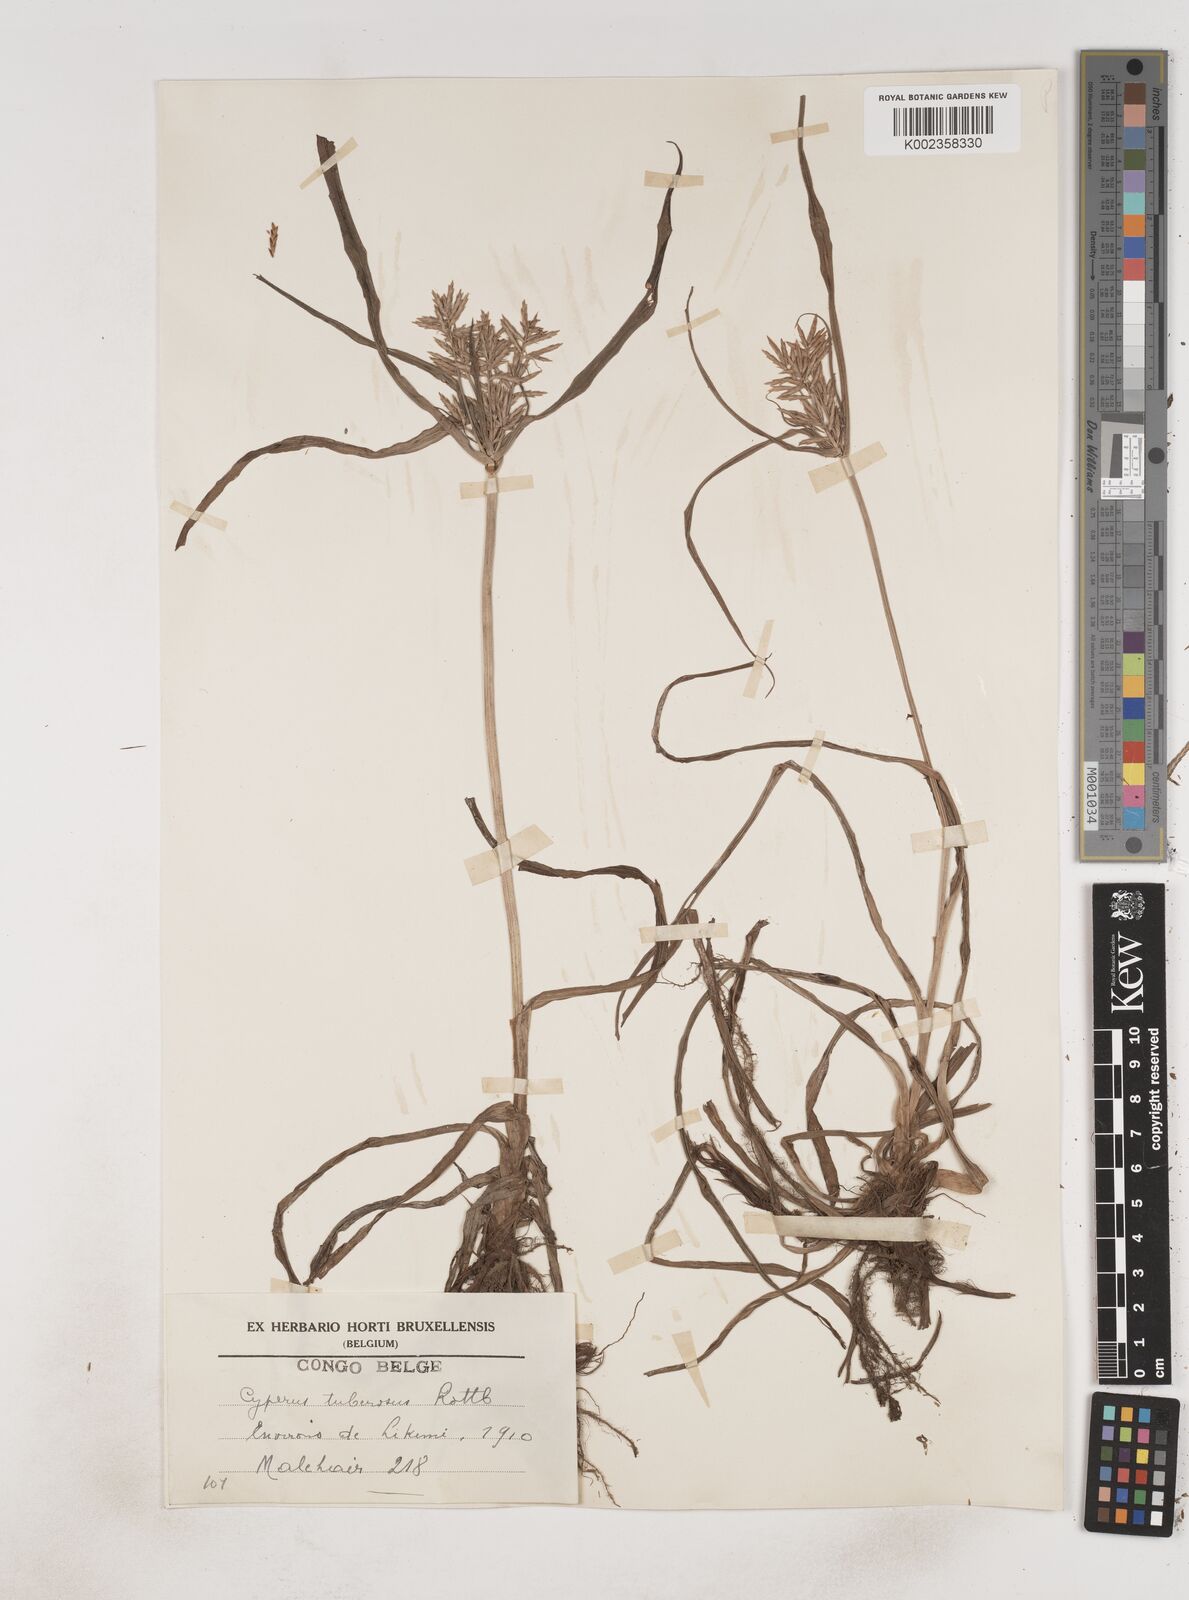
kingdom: Plantae
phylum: Tracheophyta
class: Liliopsida
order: Poales
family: Cyperaceae
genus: Cyperus
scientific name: Cyperus tuberosus
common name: Nut grass
